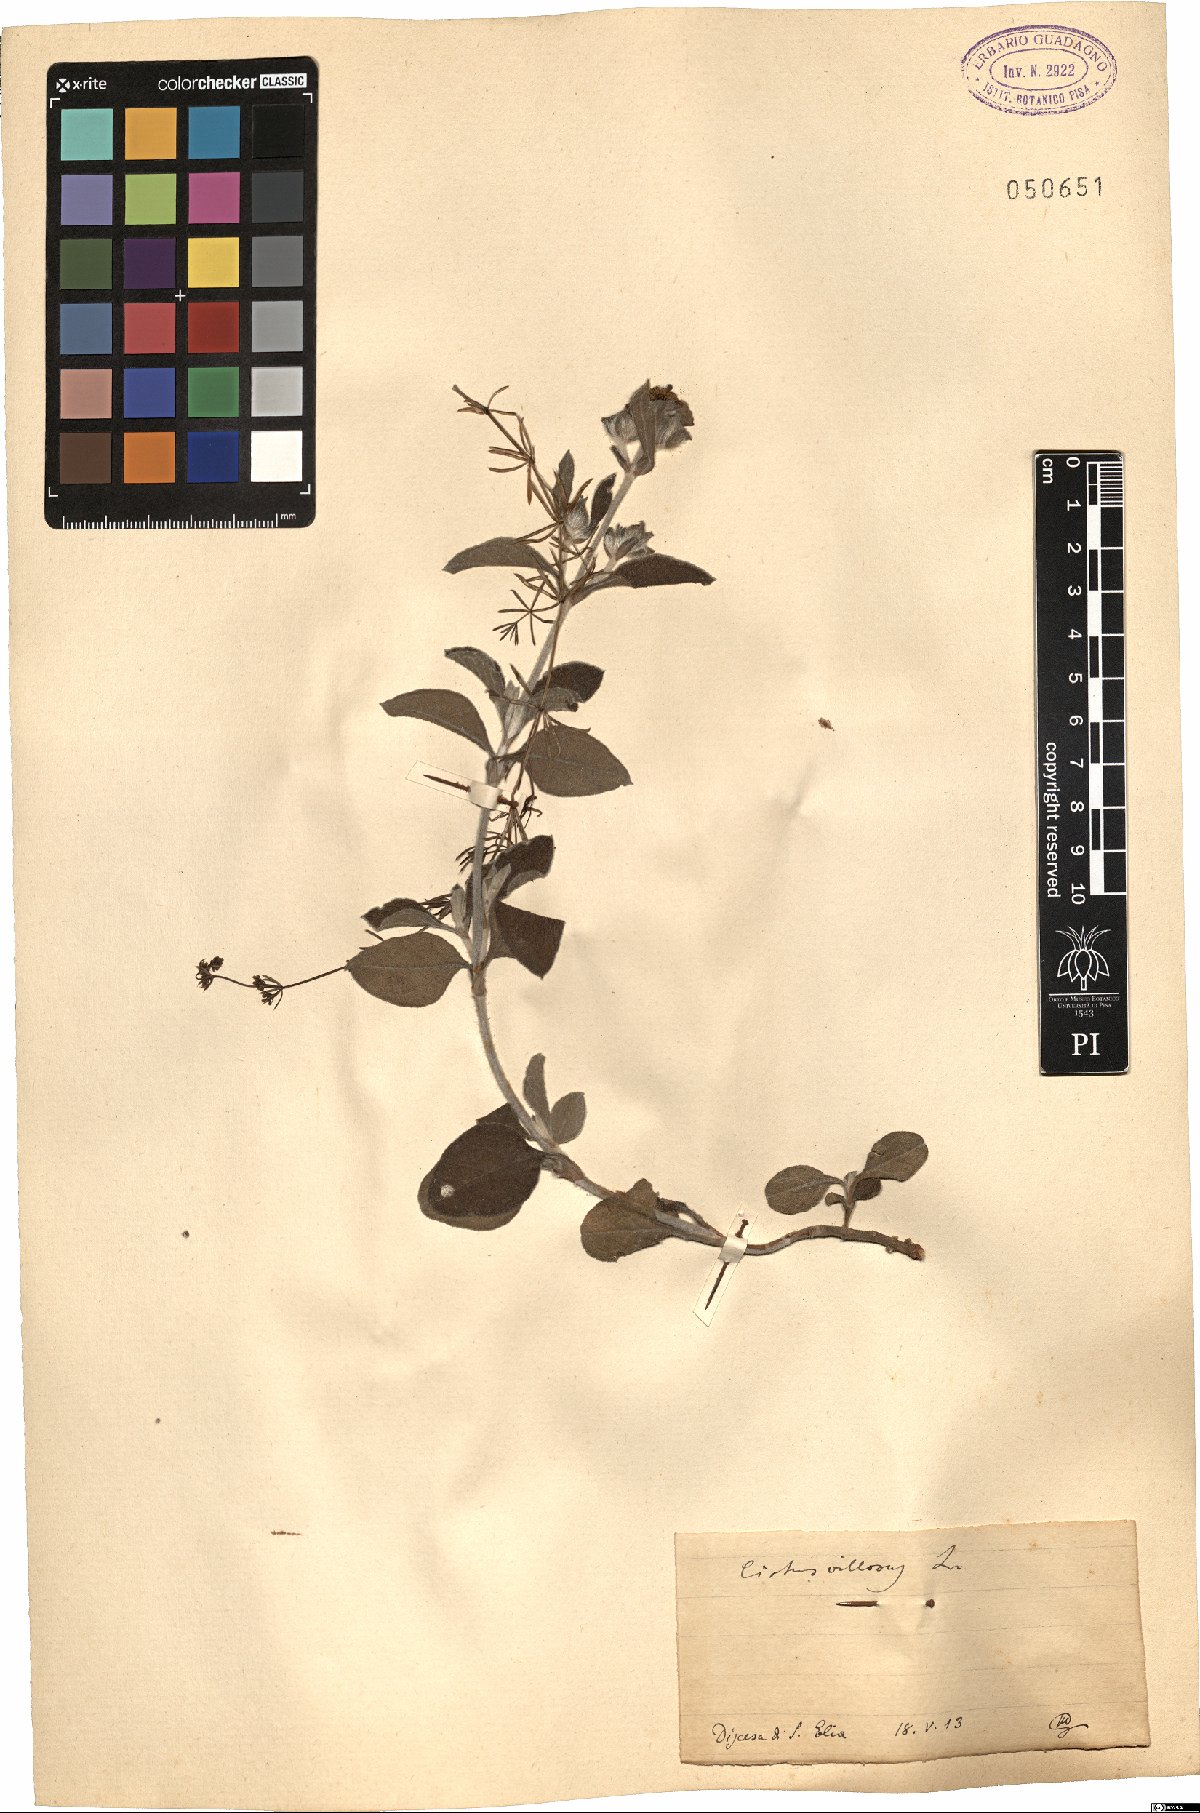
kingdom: Plantae
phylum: Tracheophyta
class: Magnoliopsida
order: Malvales
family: Cistaceae
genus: Cistus
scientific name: Cistus creticus
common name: Cretan rockrose
